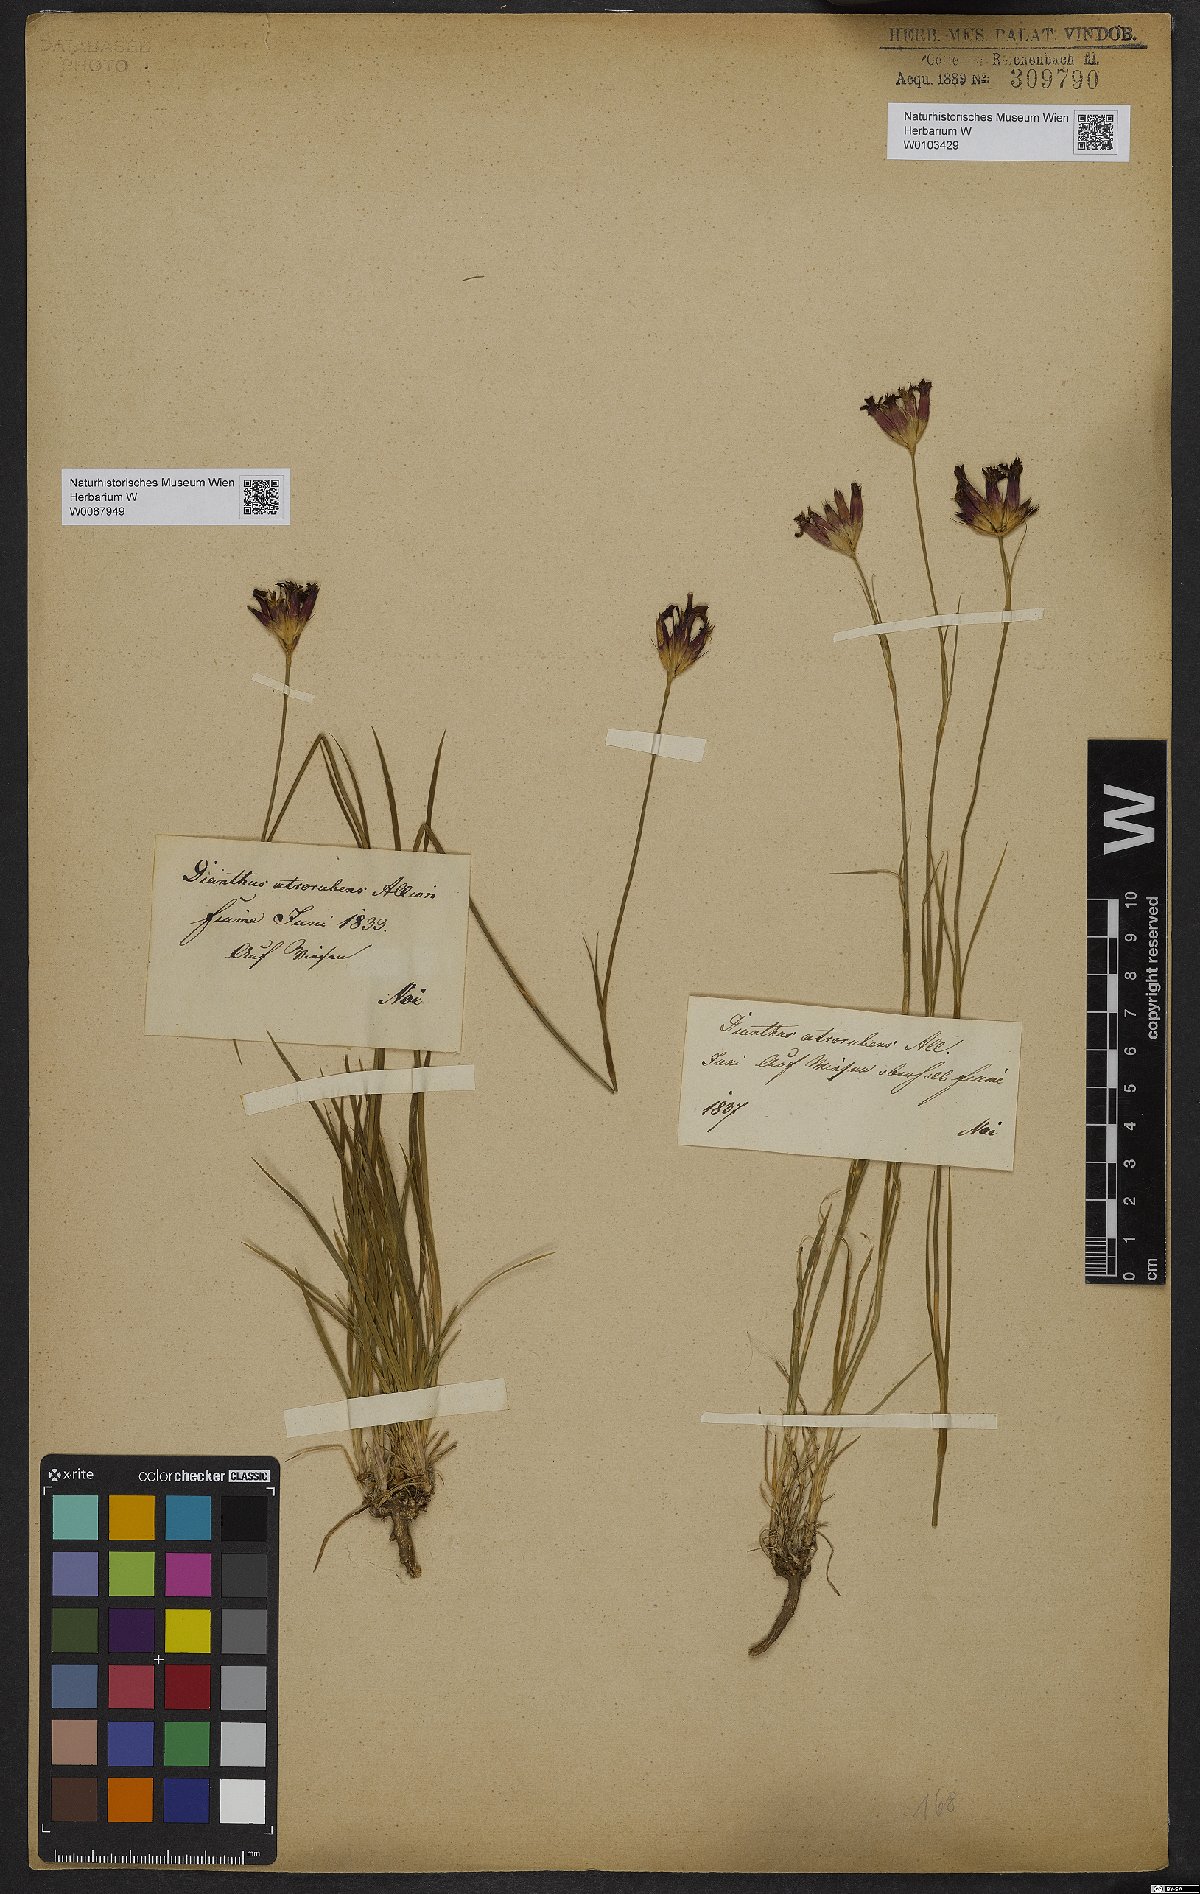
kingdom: Plantae
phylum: Tracheophyta
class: Magnoliopsida
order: Caryophyllales
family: Caryophyllaceae
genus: Dianthus
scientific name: Dianthus carthusianorum
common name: Carthusian pink
